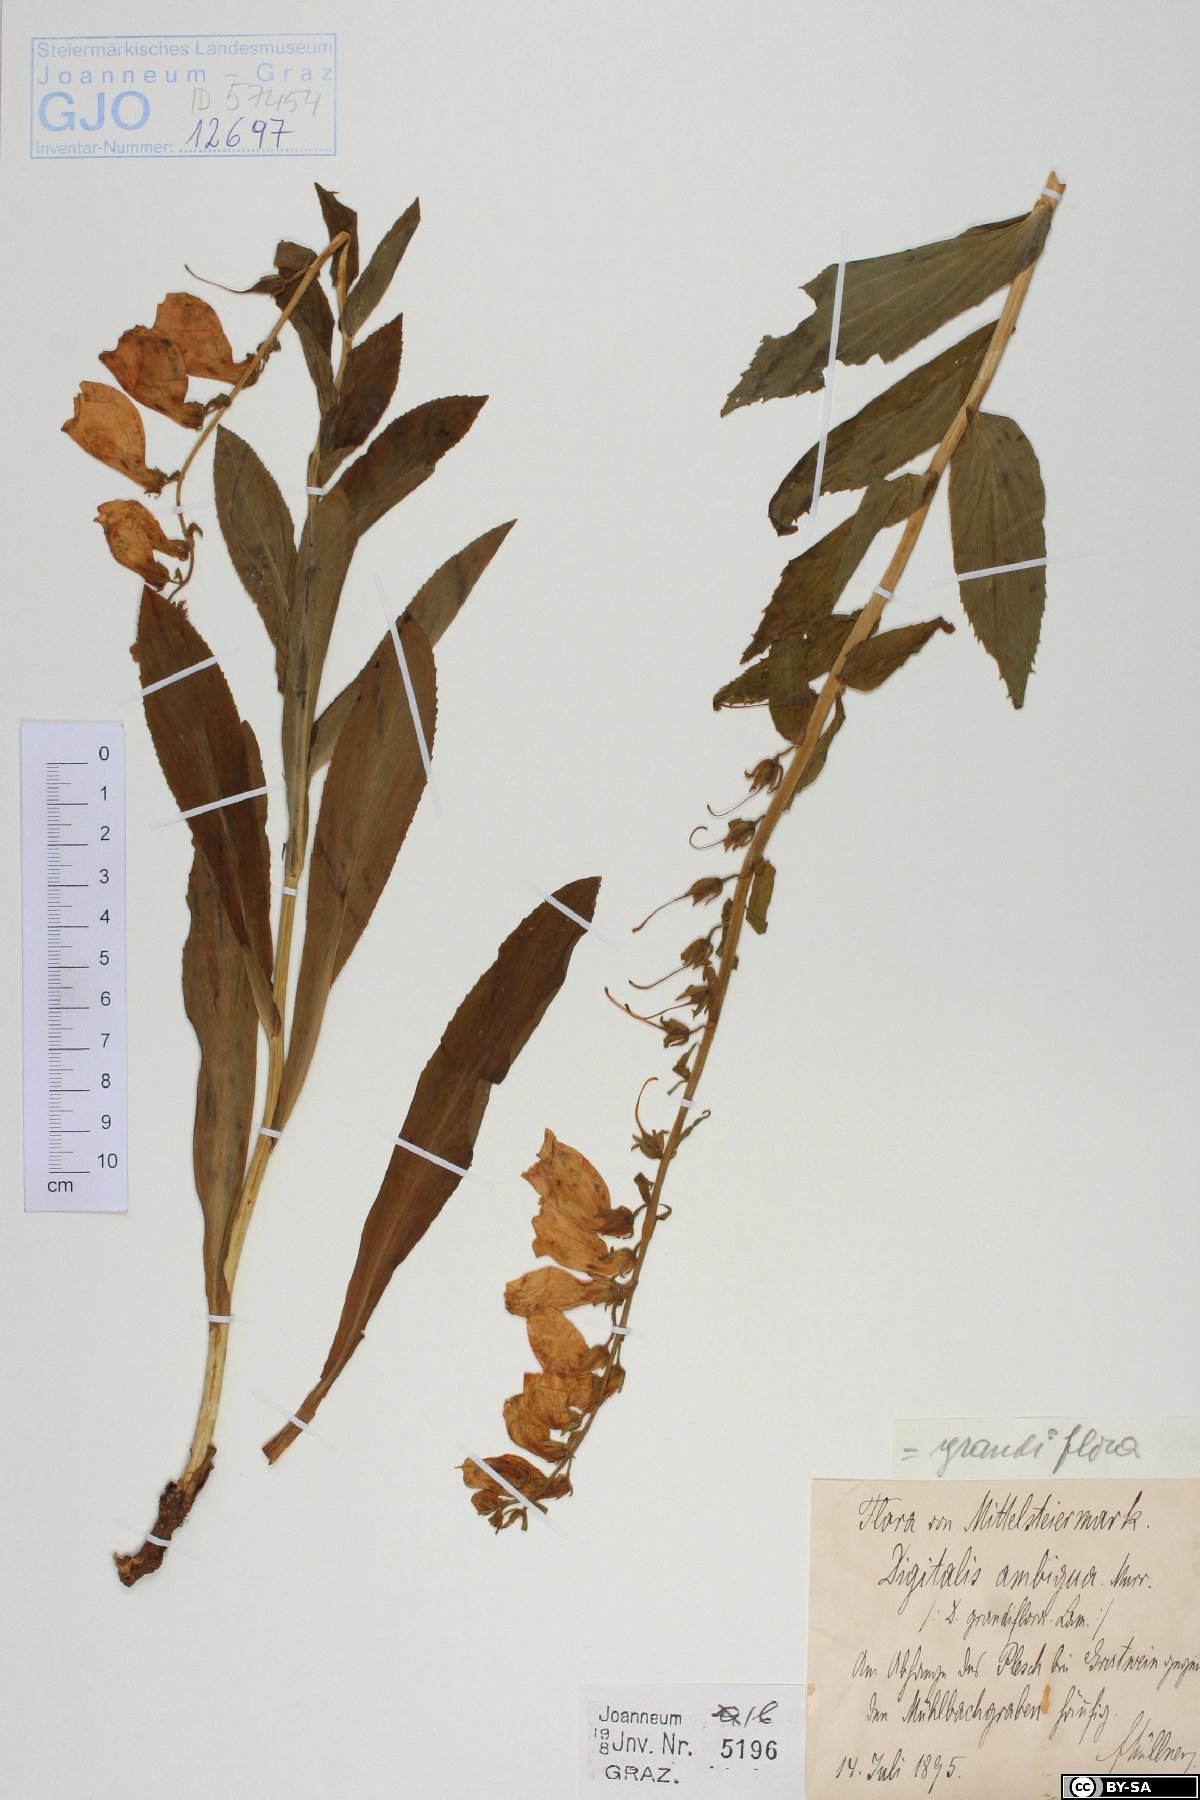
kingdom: Plantae
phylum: Tracheophyta
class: Magnoliopsida
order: Lamiales
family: Plantaginaceae
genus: Digitalis
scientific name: Digitalis grandiflora
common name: Yellow foxglove
